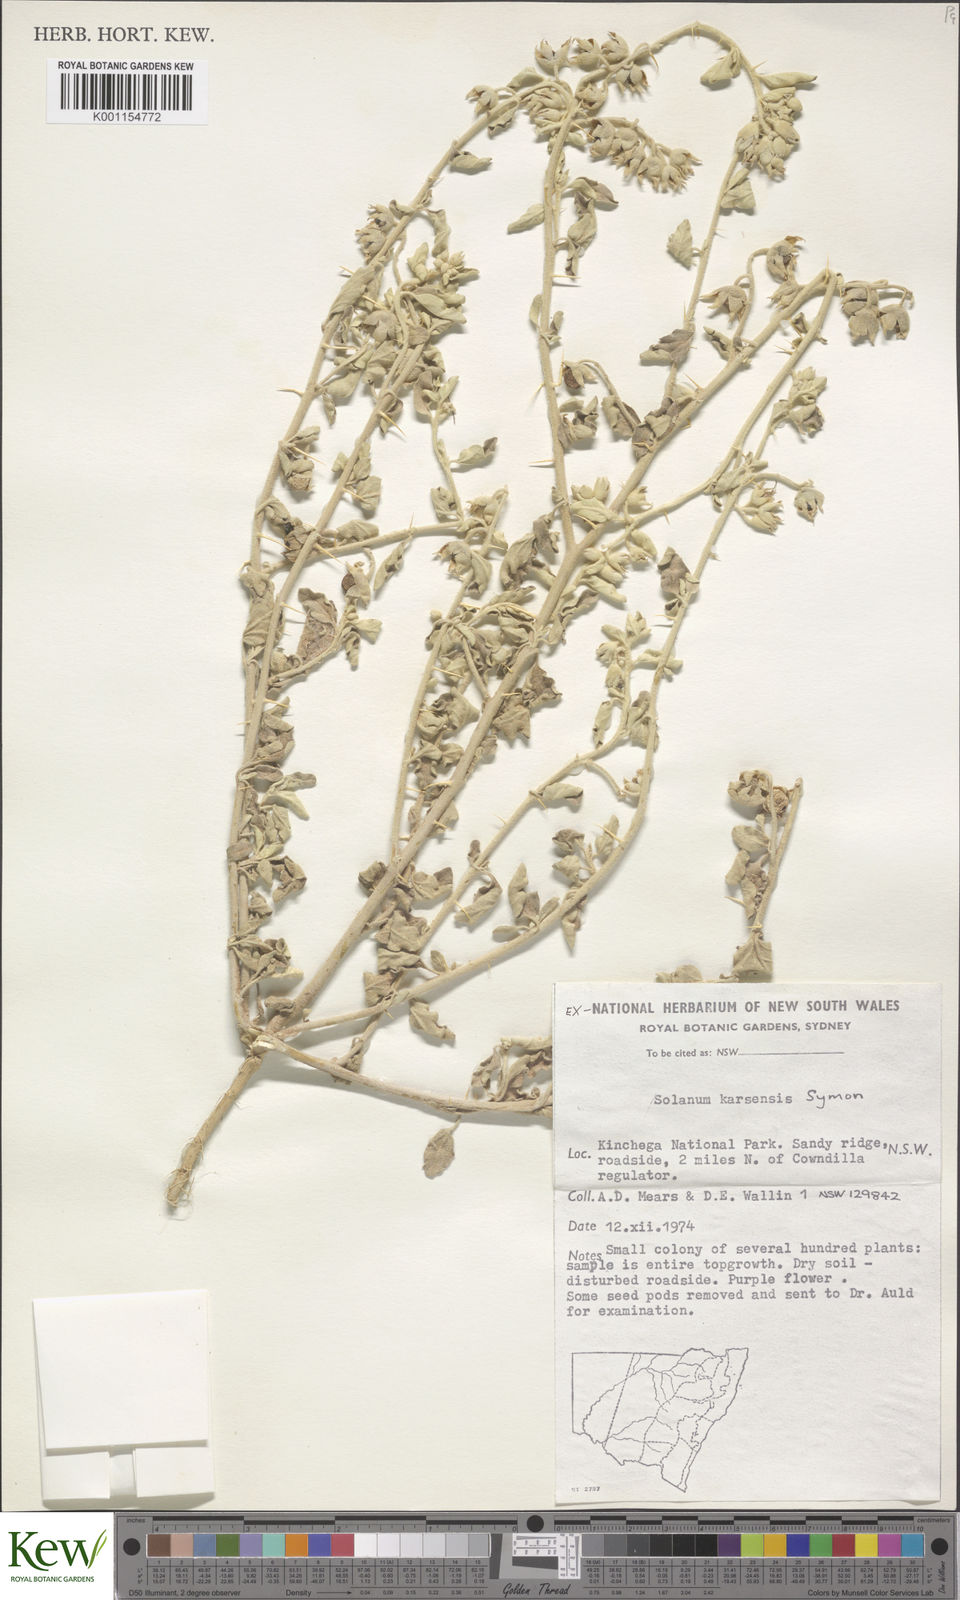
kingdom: Plantae
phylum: Tracheophyta
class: Magnoliopsida
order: Solanales
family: Solanaceae
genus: Solanum
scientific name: Solanum karsense
